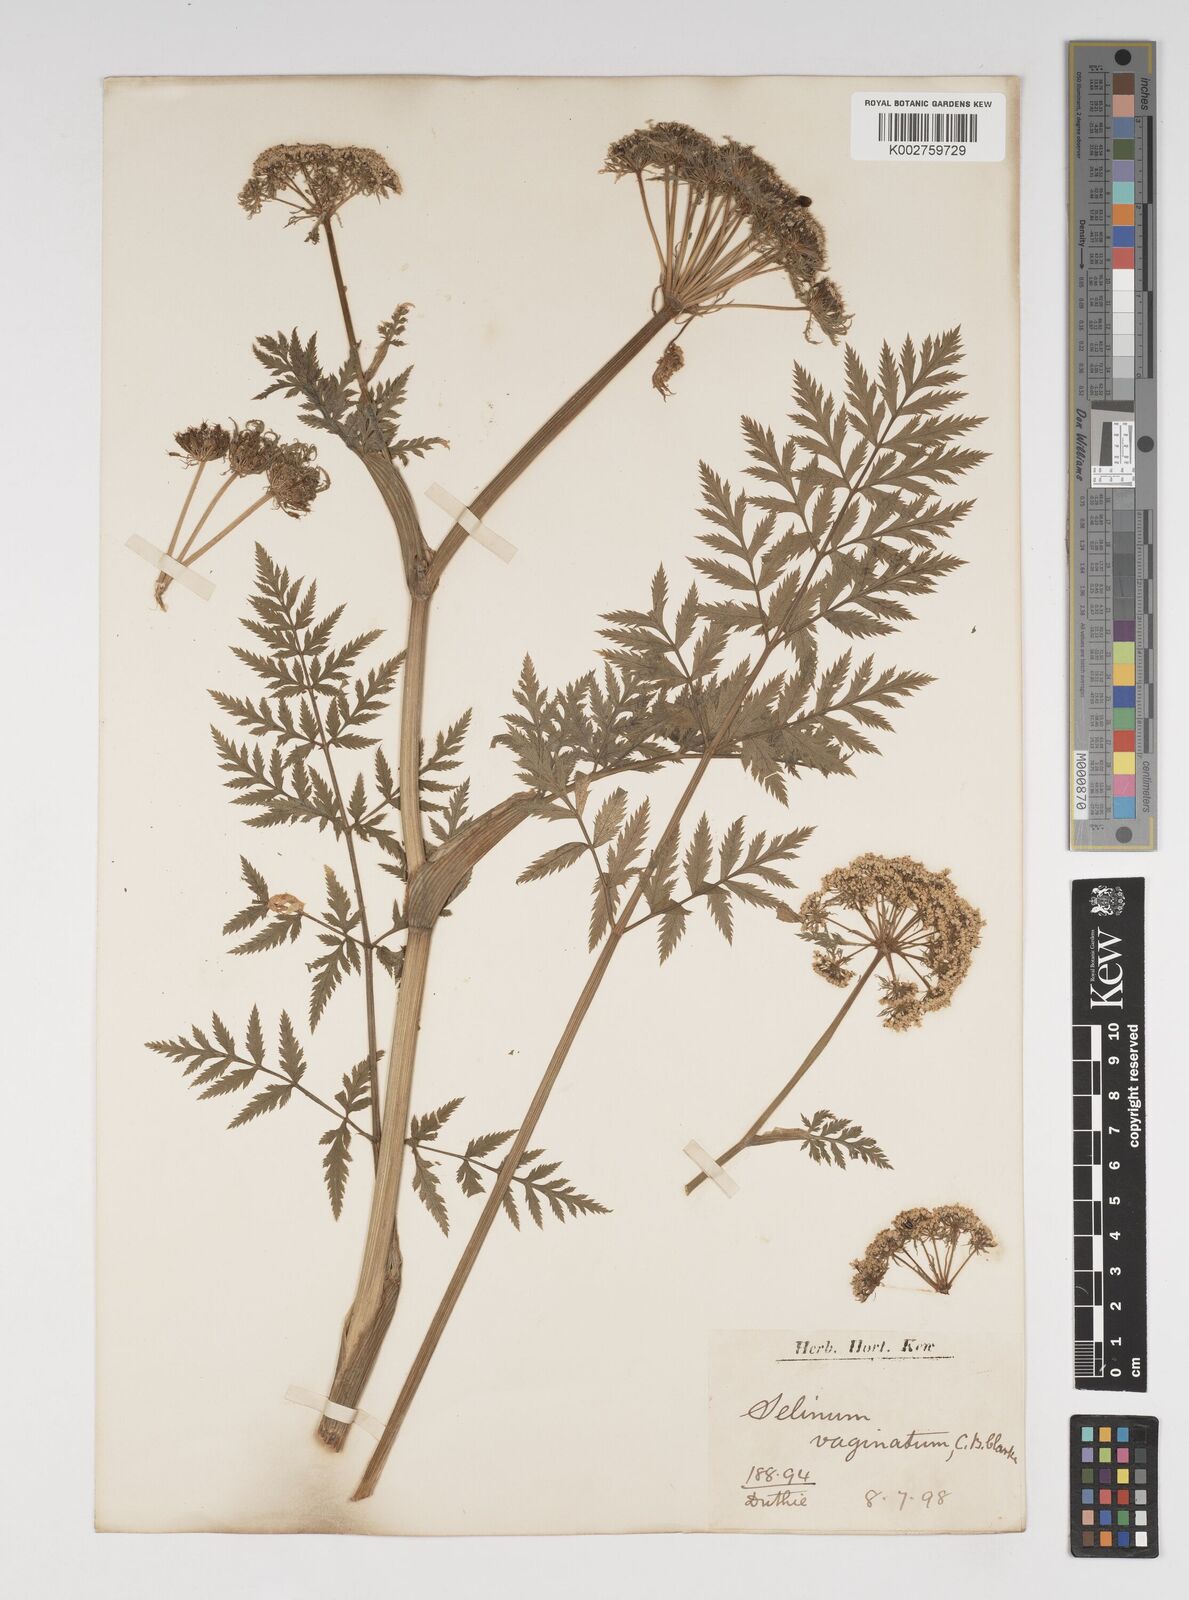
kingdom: Plantae
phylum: Tracheophyta
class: Magnoliopsida
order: Apiales
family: Apiaceae
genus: Selinum
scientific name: Selinum vaginatum
